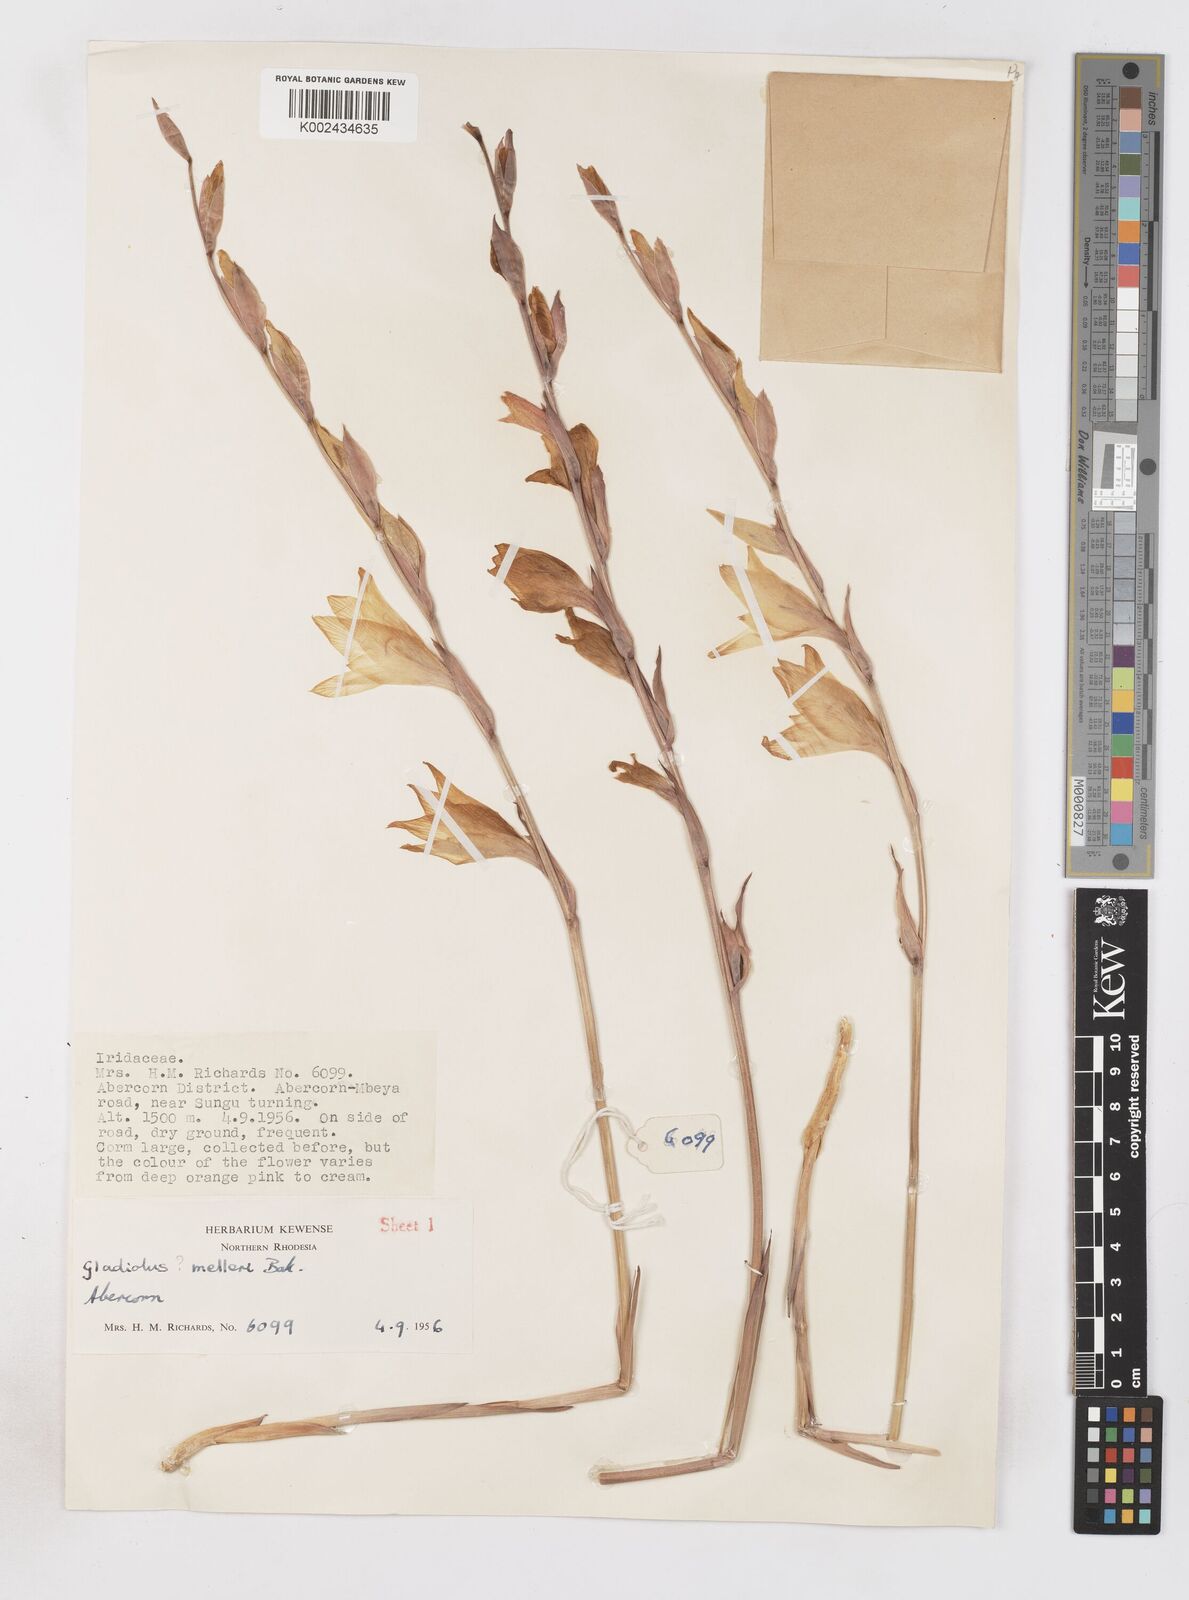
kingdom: Plantae
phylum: Tracheophyta
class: Liliopsida
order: Asparagales
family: Iridaceae
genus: Gladiolus
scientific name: Gladiolus melleri
